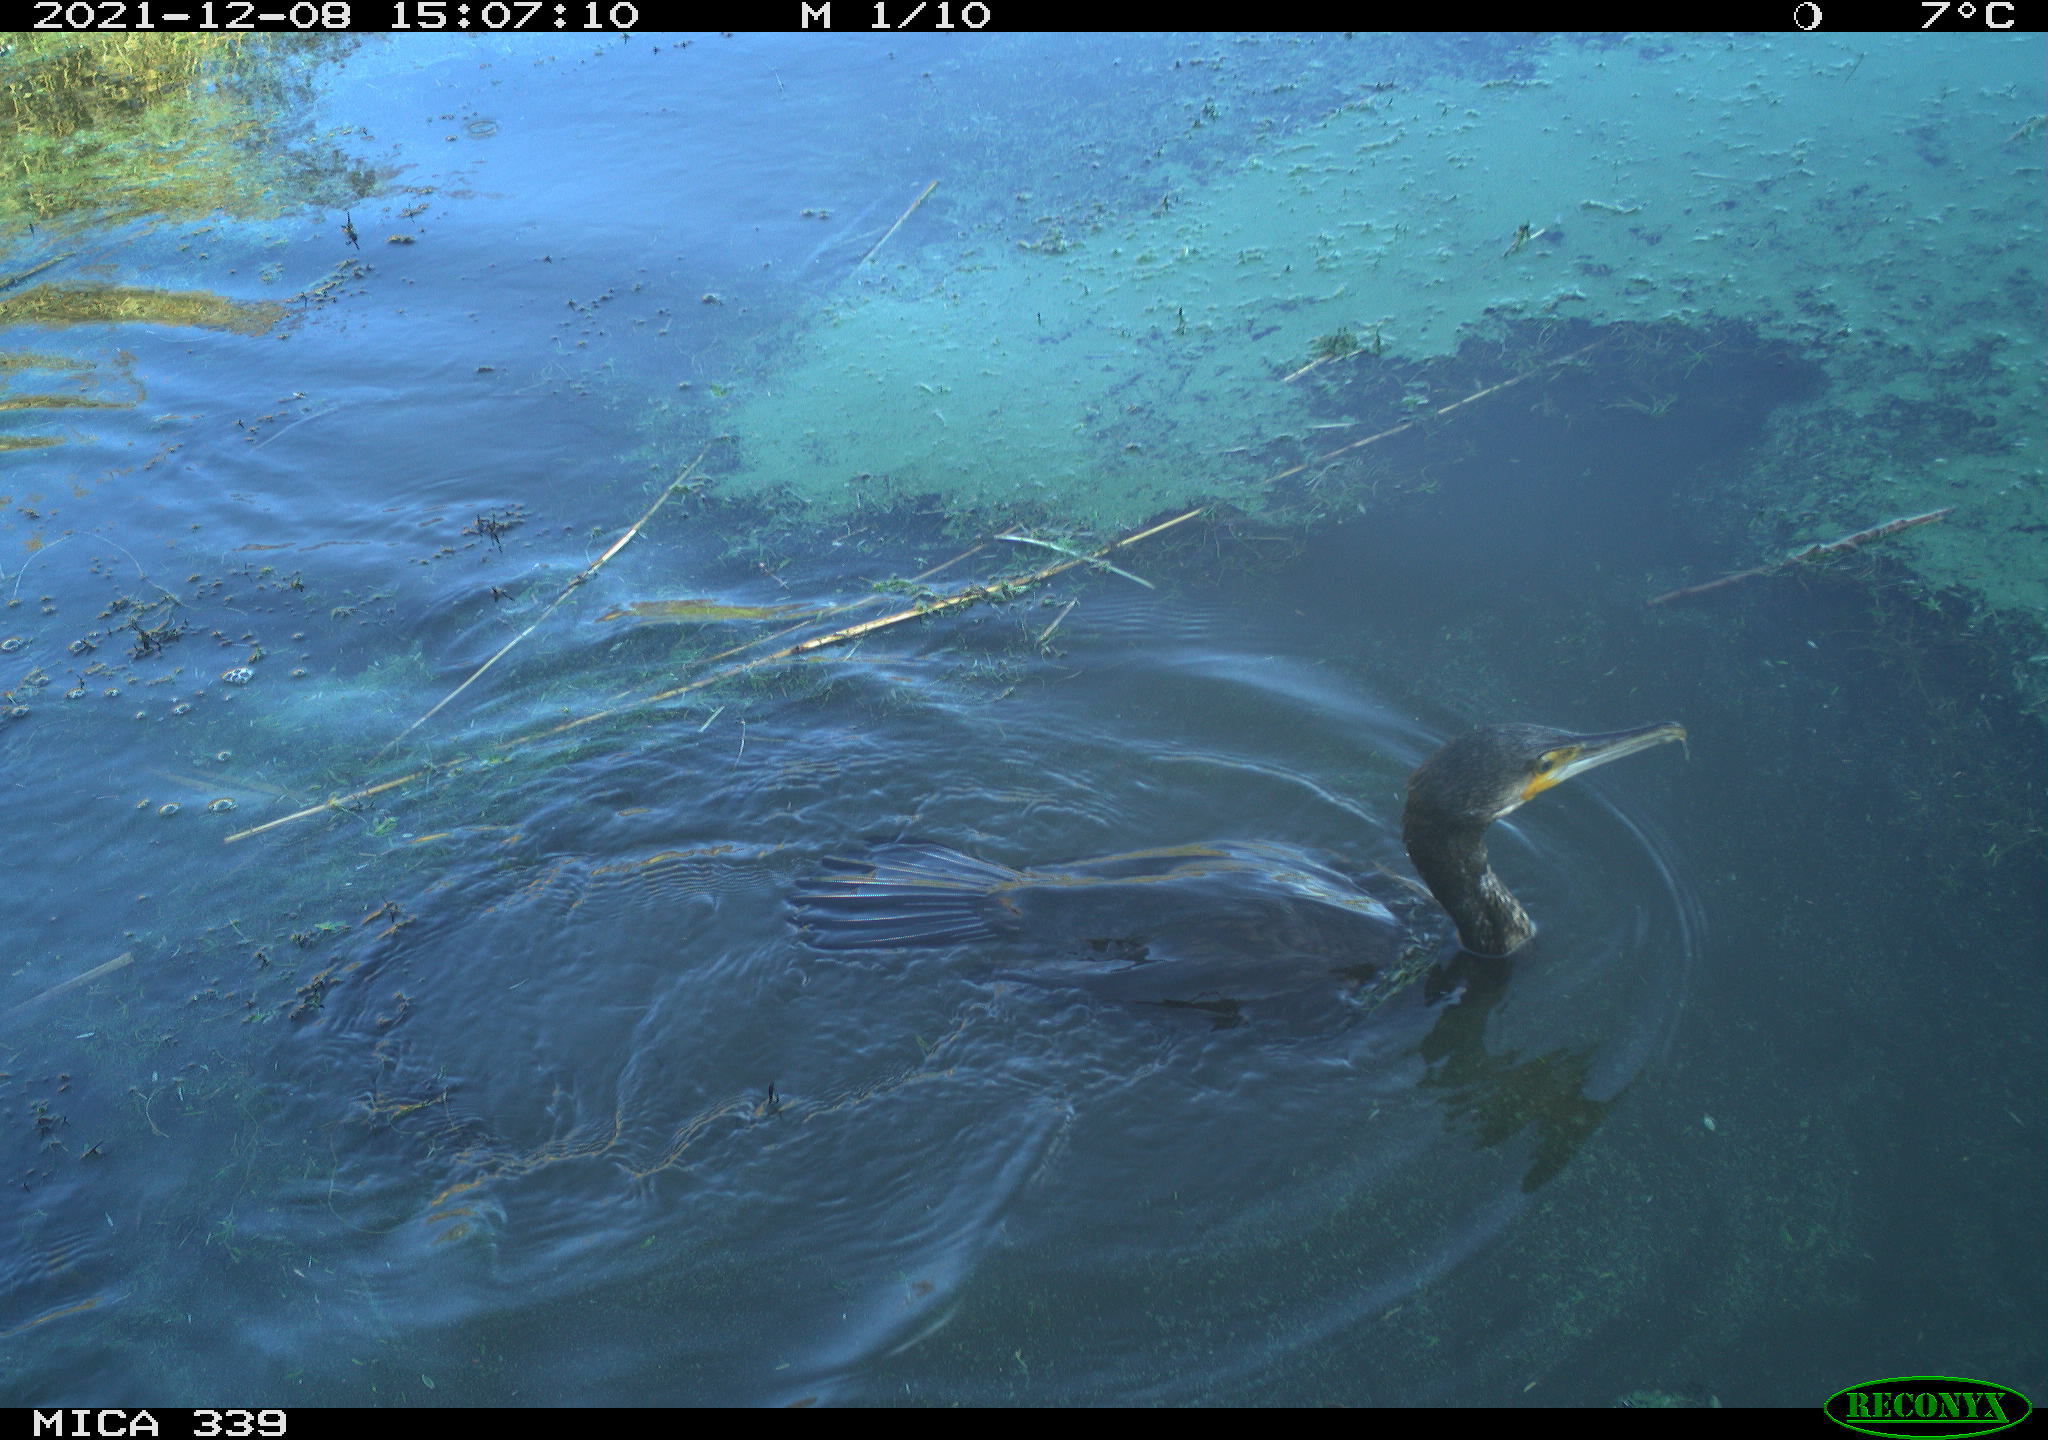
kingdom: Animalia
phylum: Chordata
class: Aves
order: Suliformes
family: Phalacrocoracidae
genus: Phalacrocorax
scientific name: Phalacrocorax carbo
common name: Great cormorant
